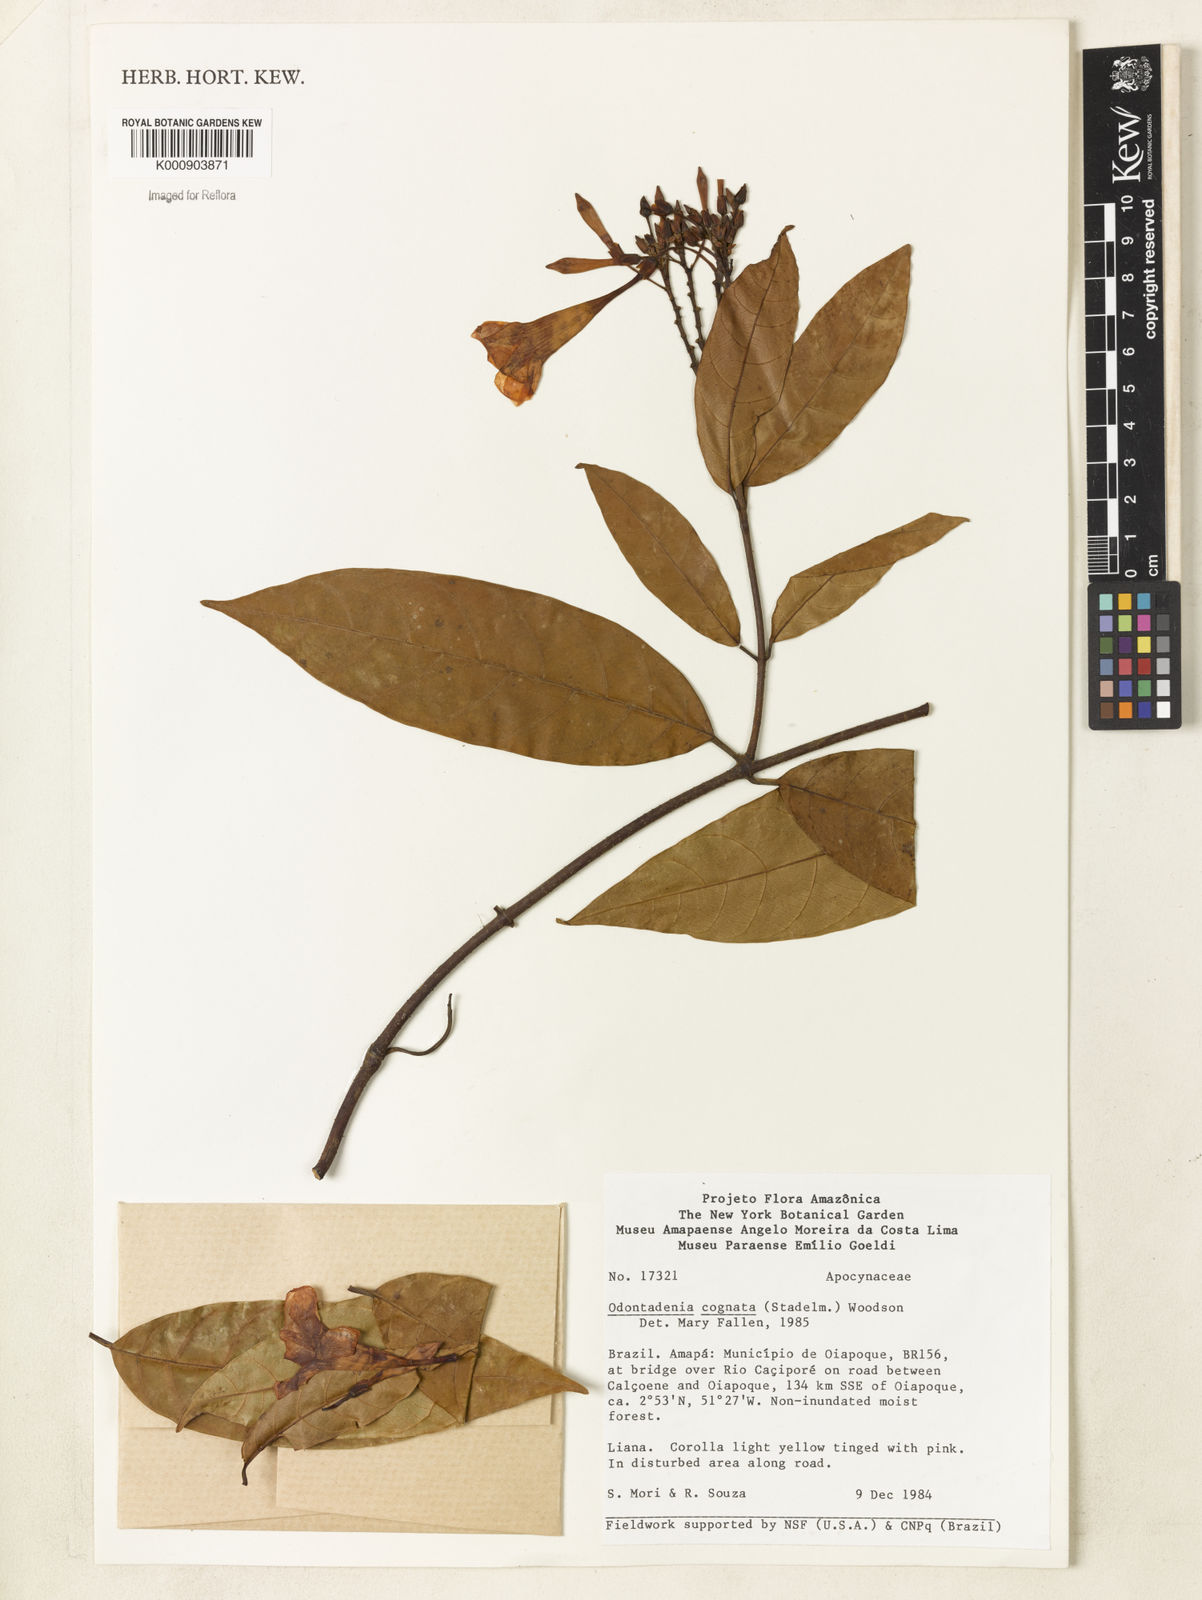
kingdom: Plantae
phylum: Tracheophyta
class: Magnoliopsida
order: Gentianales
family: Apocynaceae
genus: Odontadenia
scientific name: Odontadenia verrucosa
